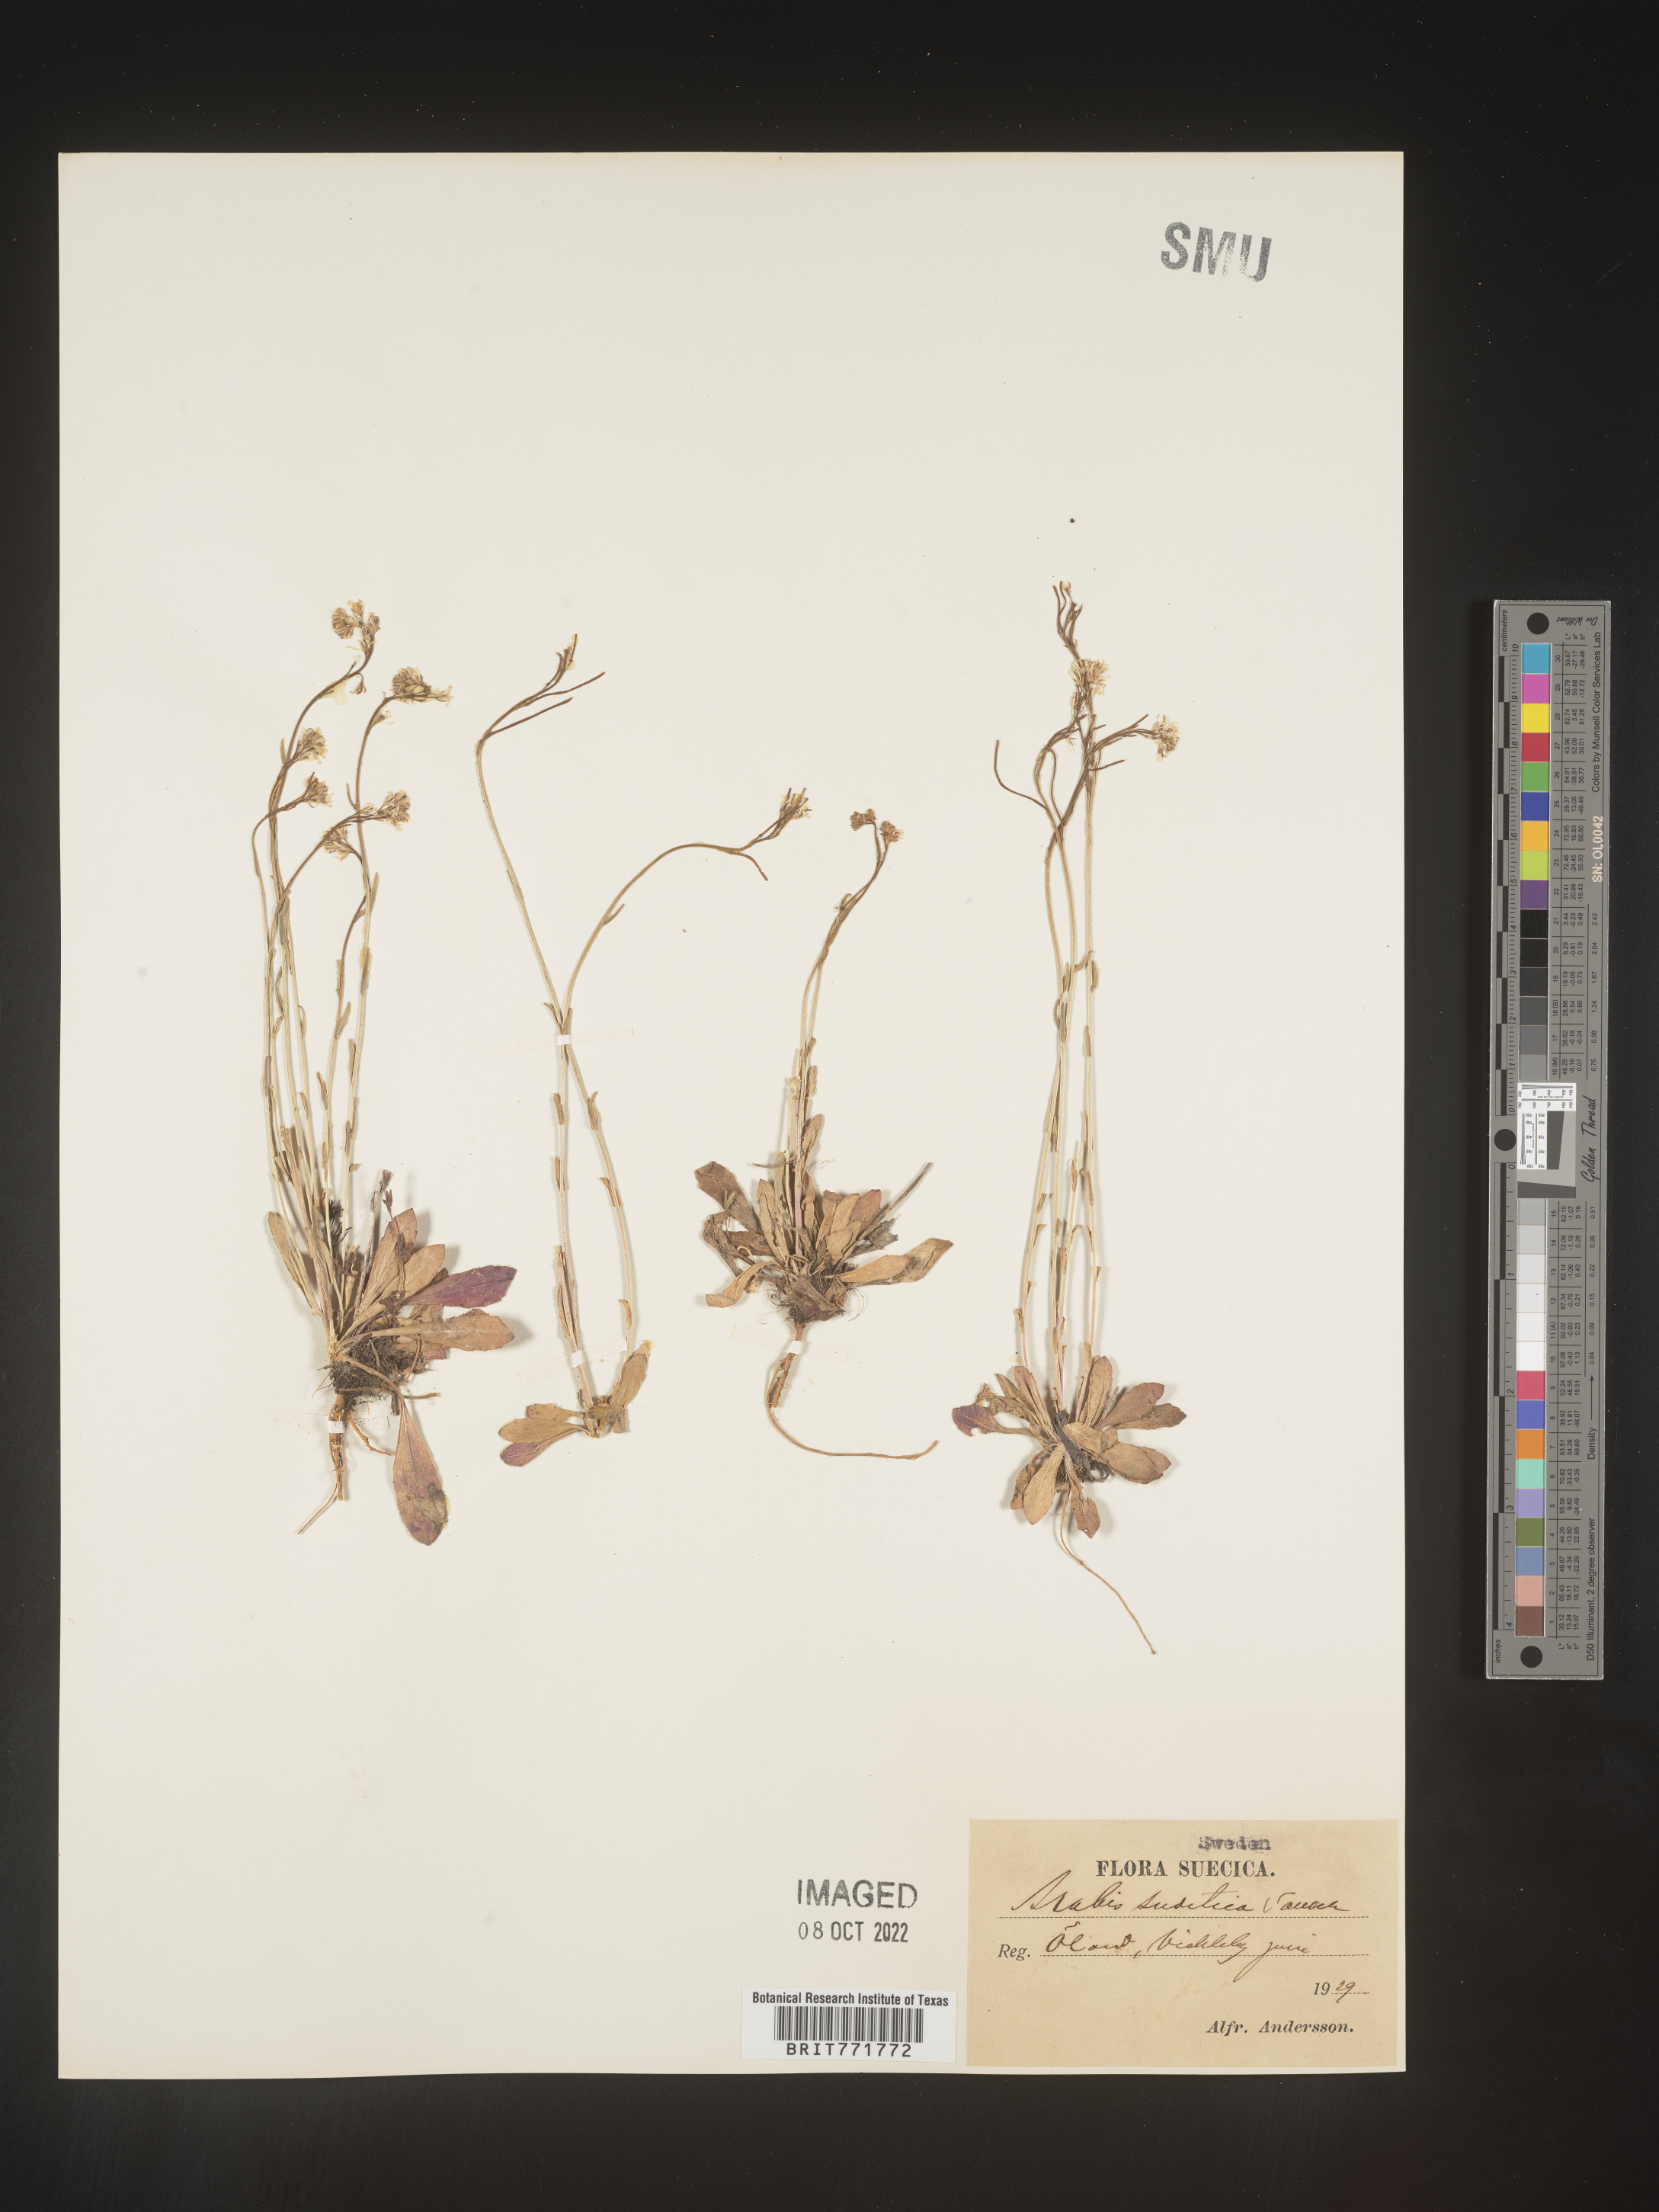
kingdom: Plantae
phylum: Tracheophyta
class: Magnoliopsida
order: Brassicales
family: Brassicaceae
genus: Arabis
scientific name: Arabis
